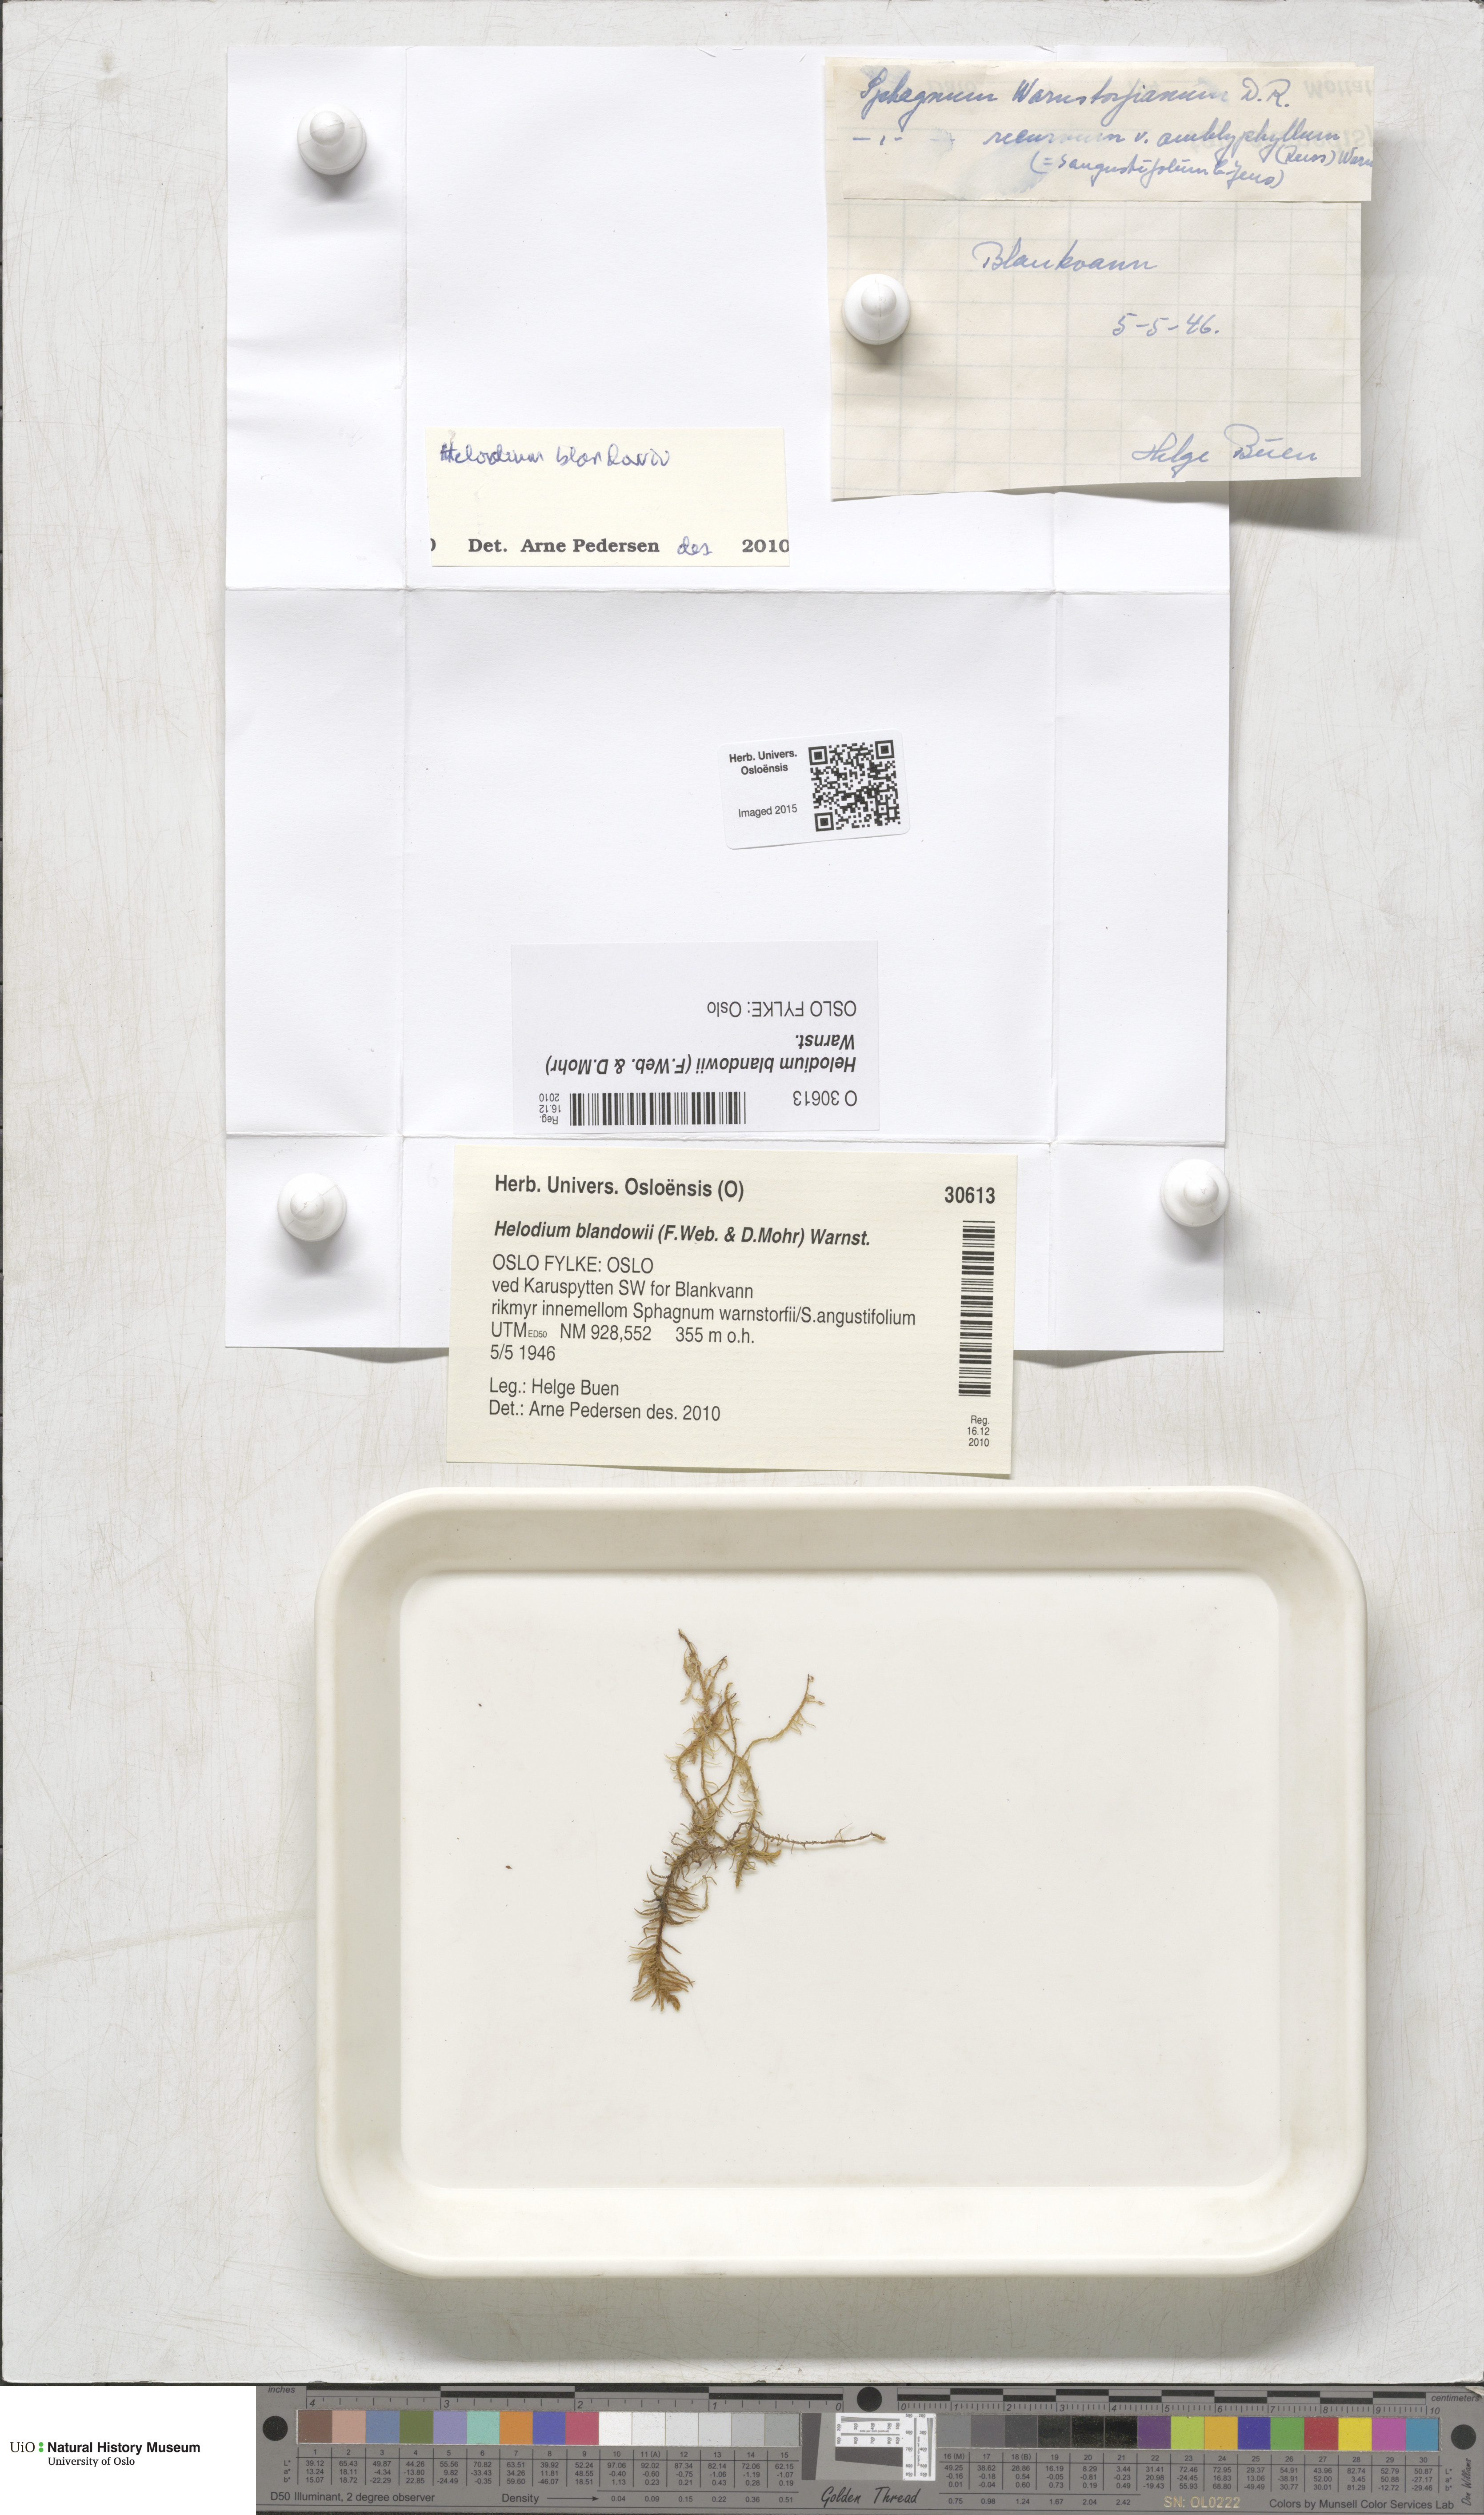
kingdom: Plantae
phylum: Bryophyta
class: Bryopsida
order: Hypnales
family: Helodiaceae
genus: Helodium
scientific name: Helodium blandowii
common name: Blandow's tamarisk-moss
